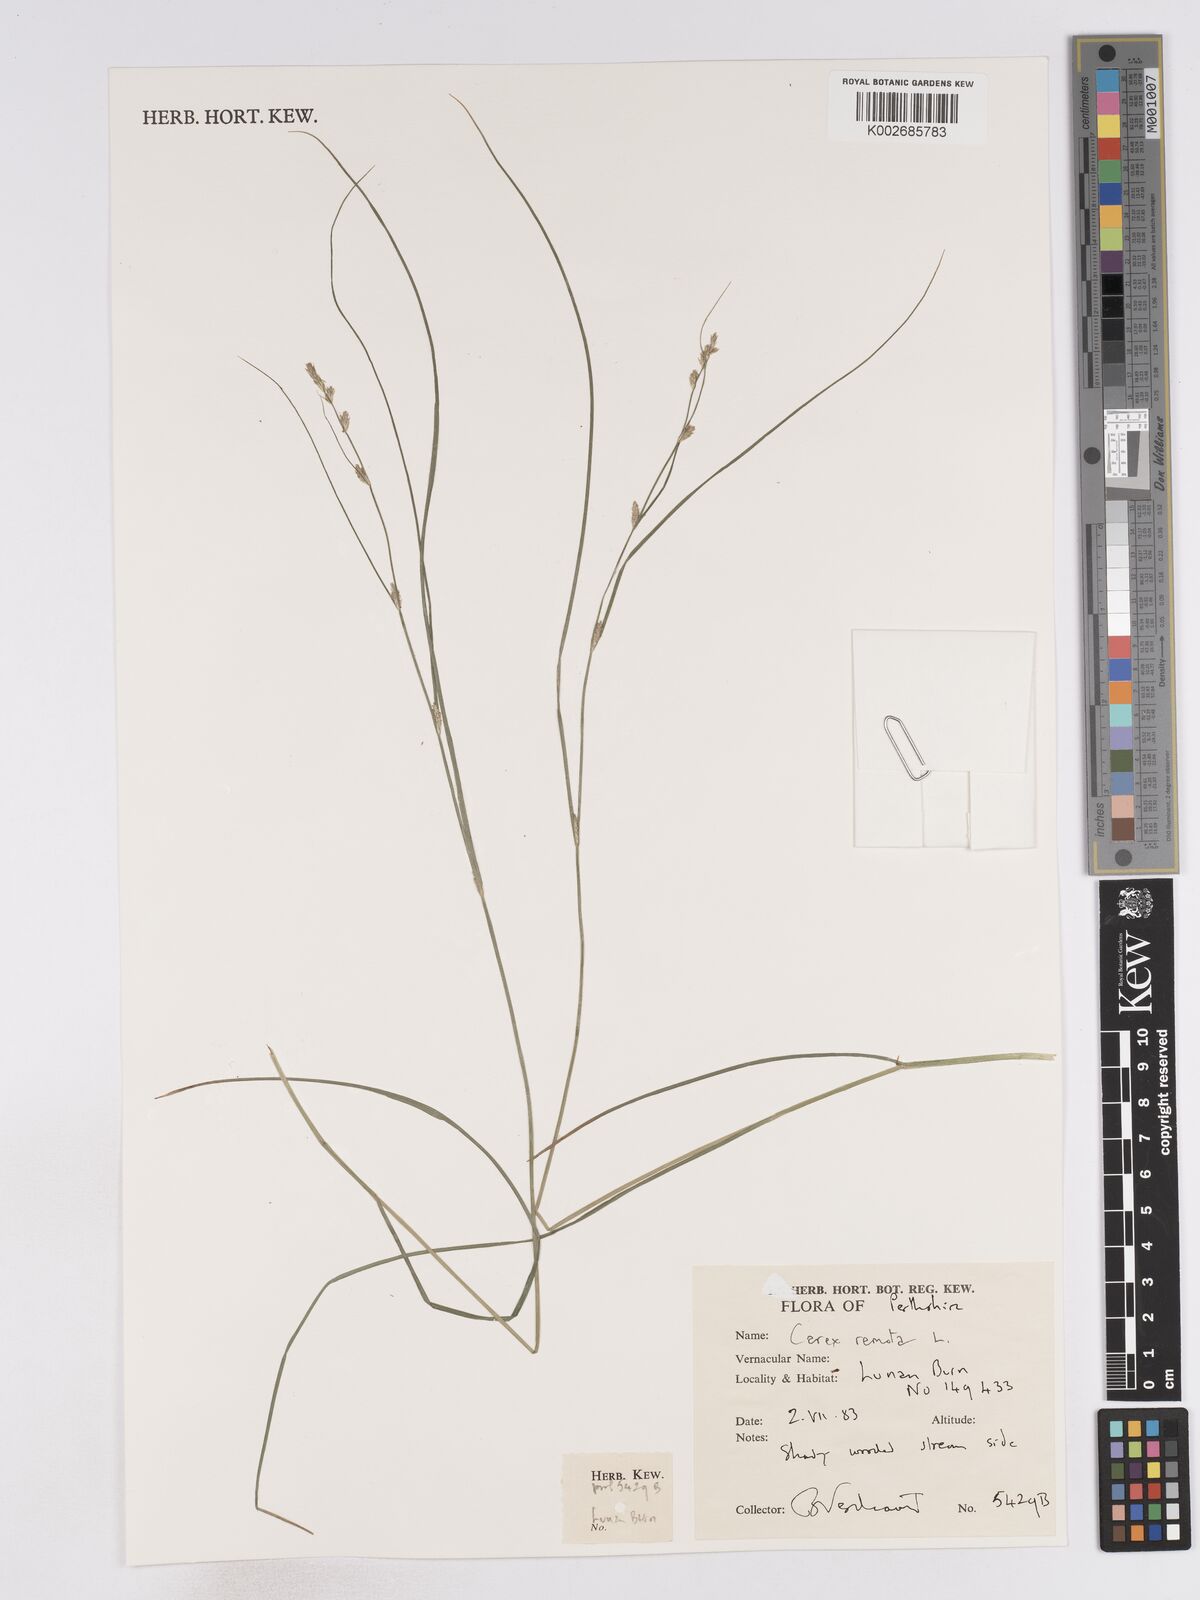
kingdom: Plantae
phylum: Tracheophyta
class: Liliopsida
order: Poales
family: Cyperaceae
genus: Carex
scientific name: Carex remota
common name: Remote sedge
